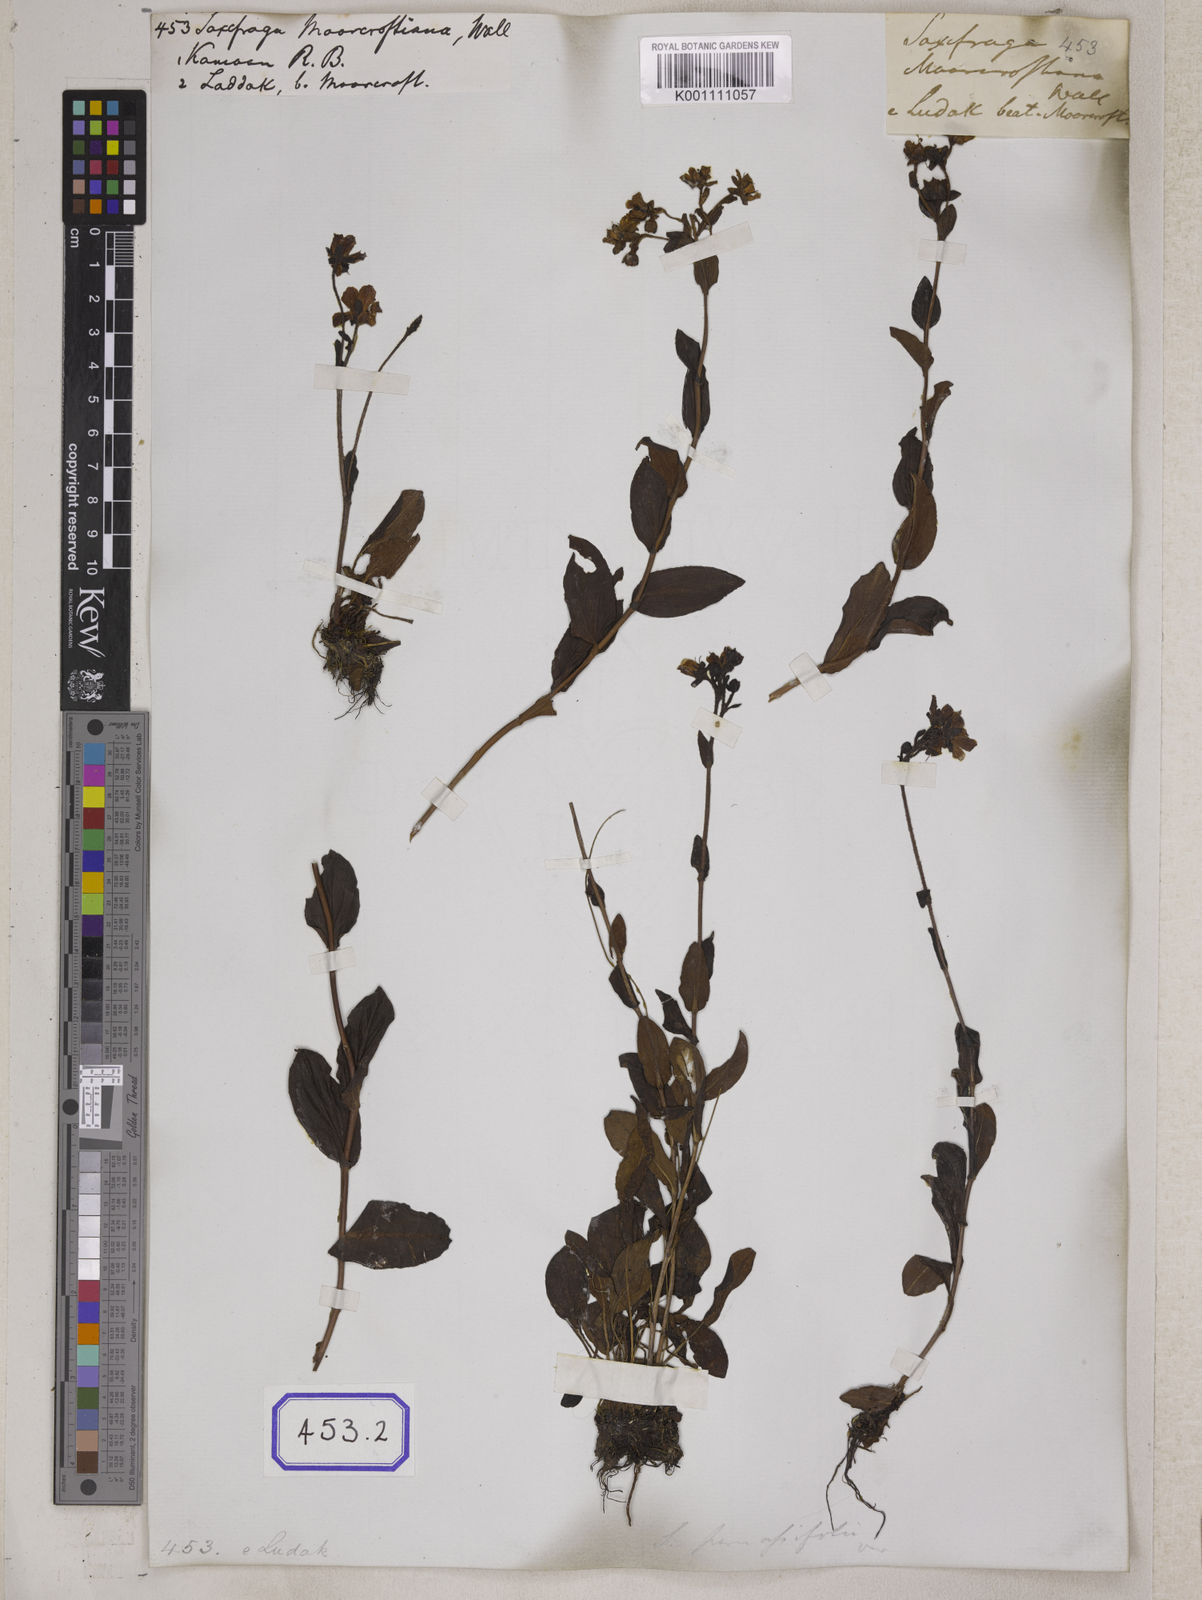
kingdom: Plantae
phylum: Tracheophyta
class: Magnoliopsida
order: Saxifragales
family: Saxifragaceae
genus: Saxifraga
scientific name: Saxifraga
